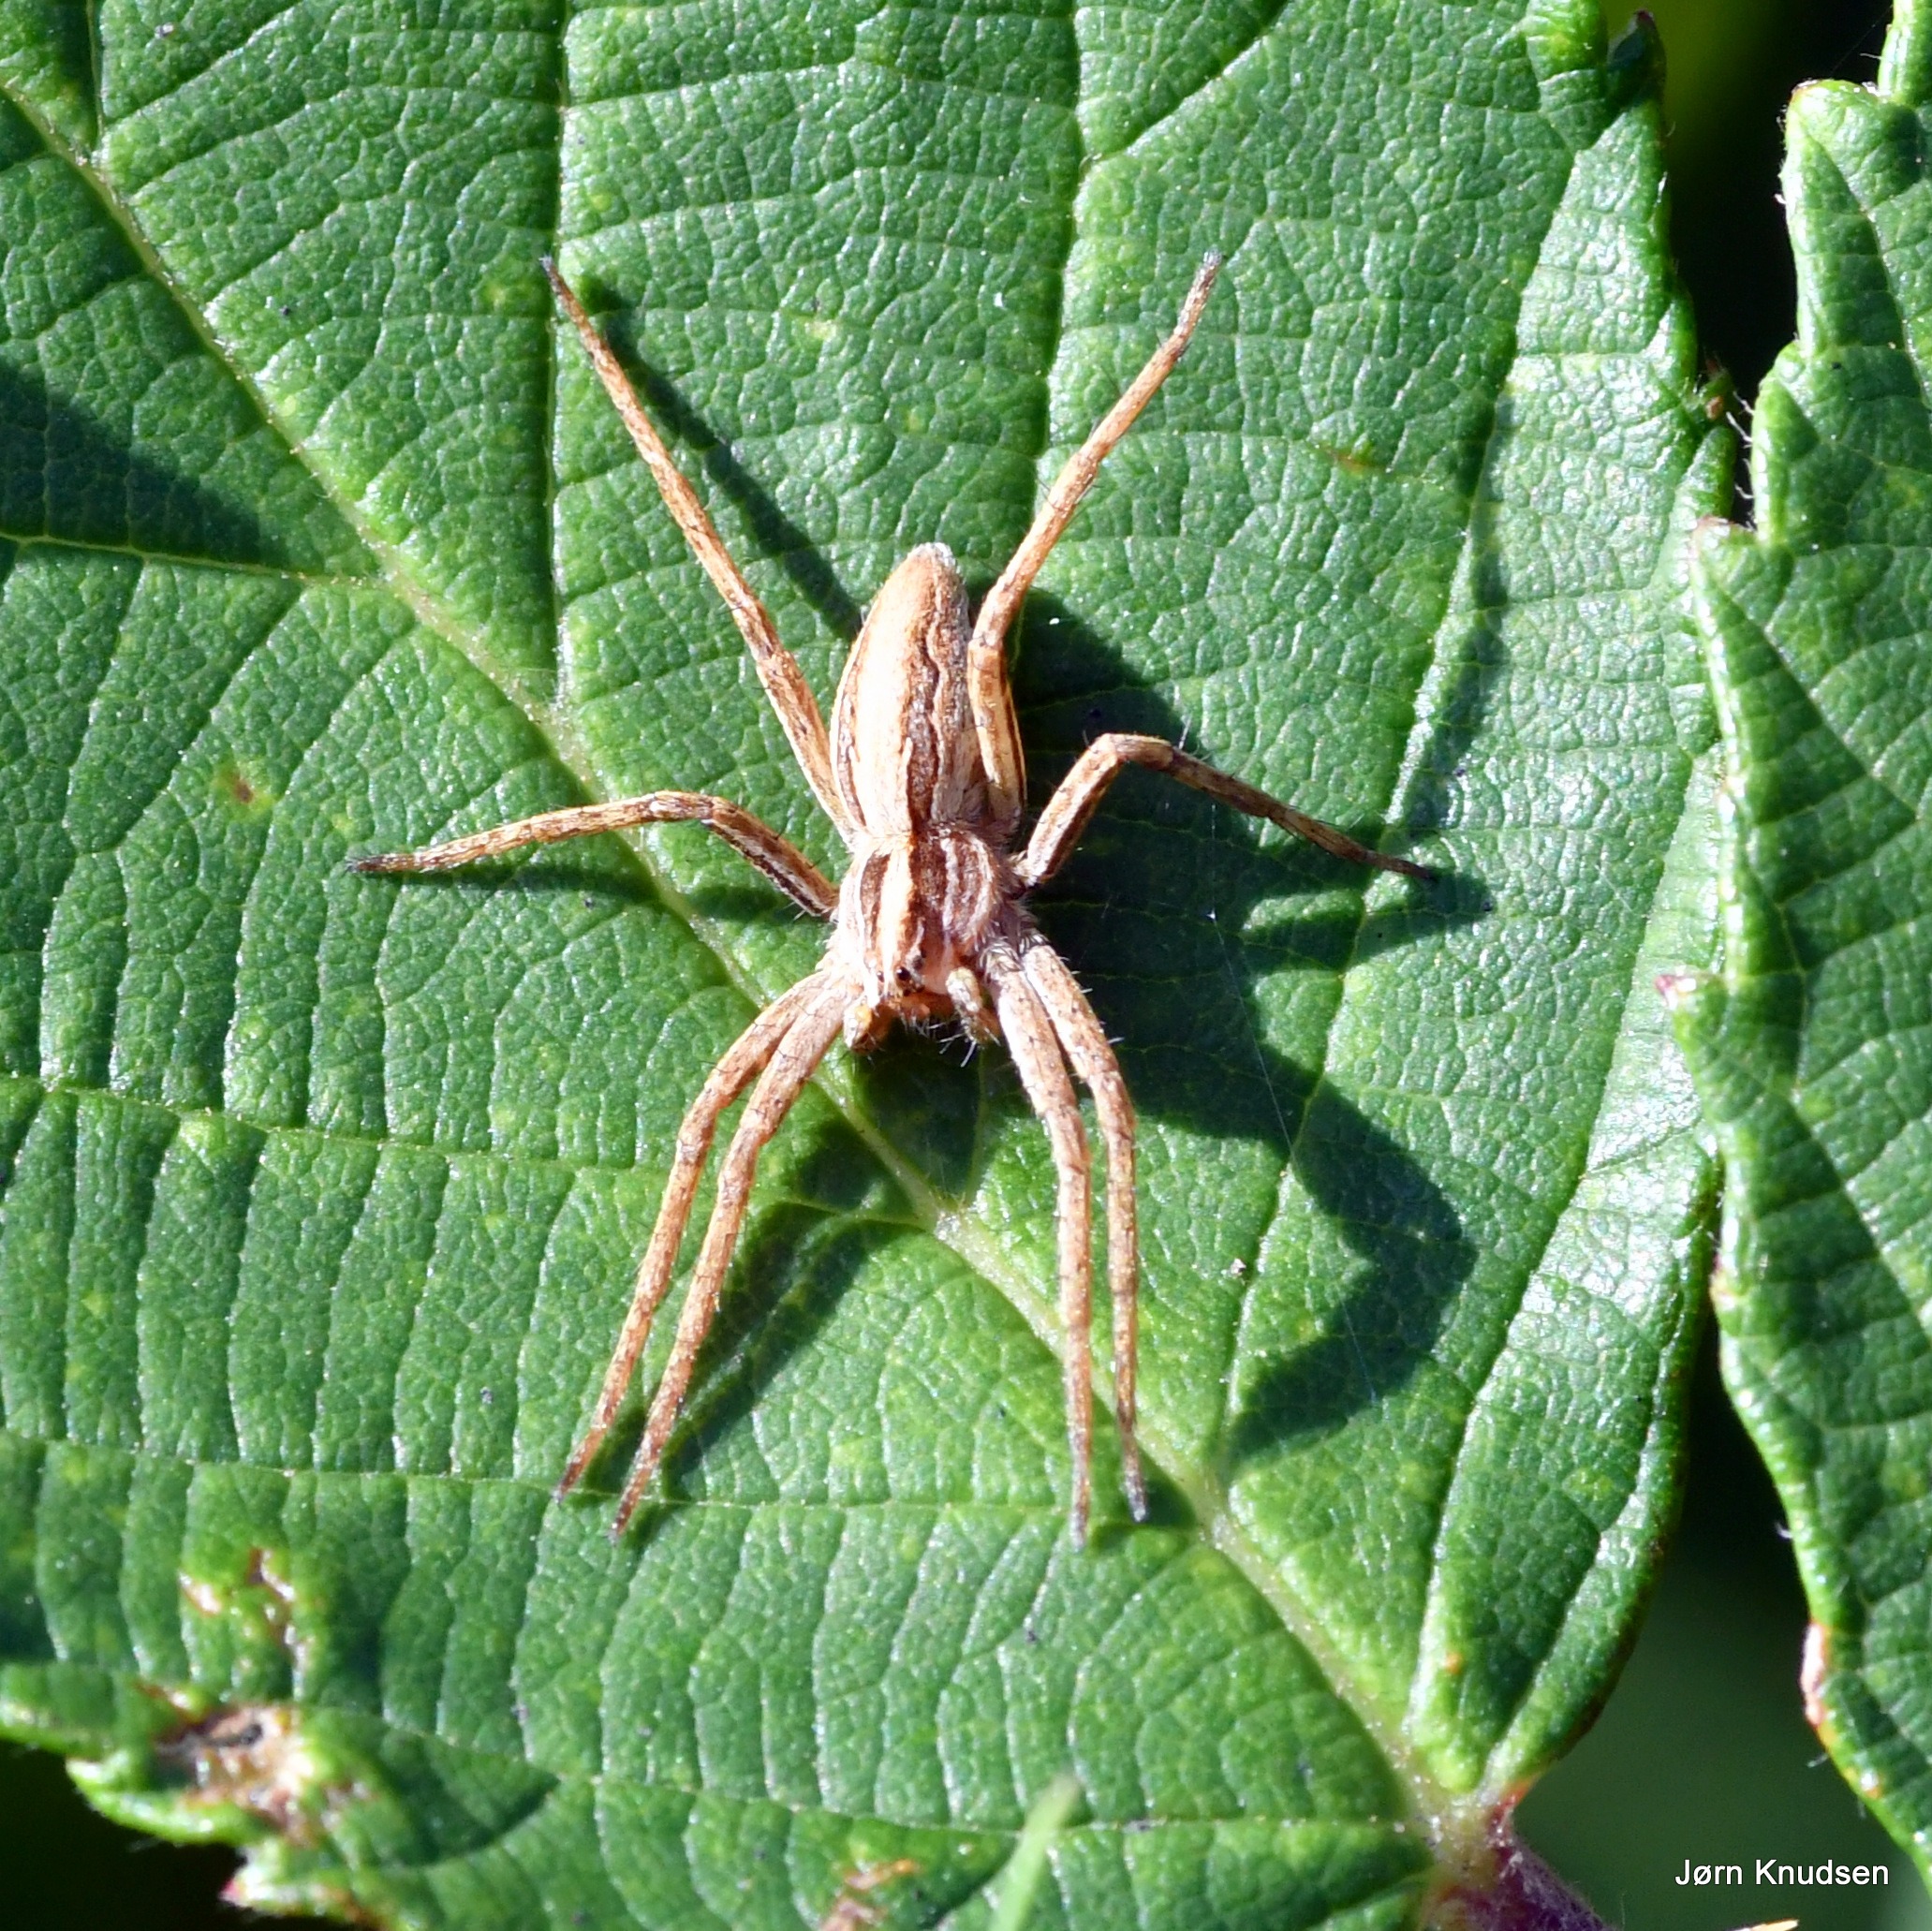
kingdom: Animalia
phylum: Arthropoda
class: Arachnida
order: Araneae
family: Pisauridae
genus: Pisaura
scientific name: Pisaura mirabilis
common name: Almindelig rovedderkop
